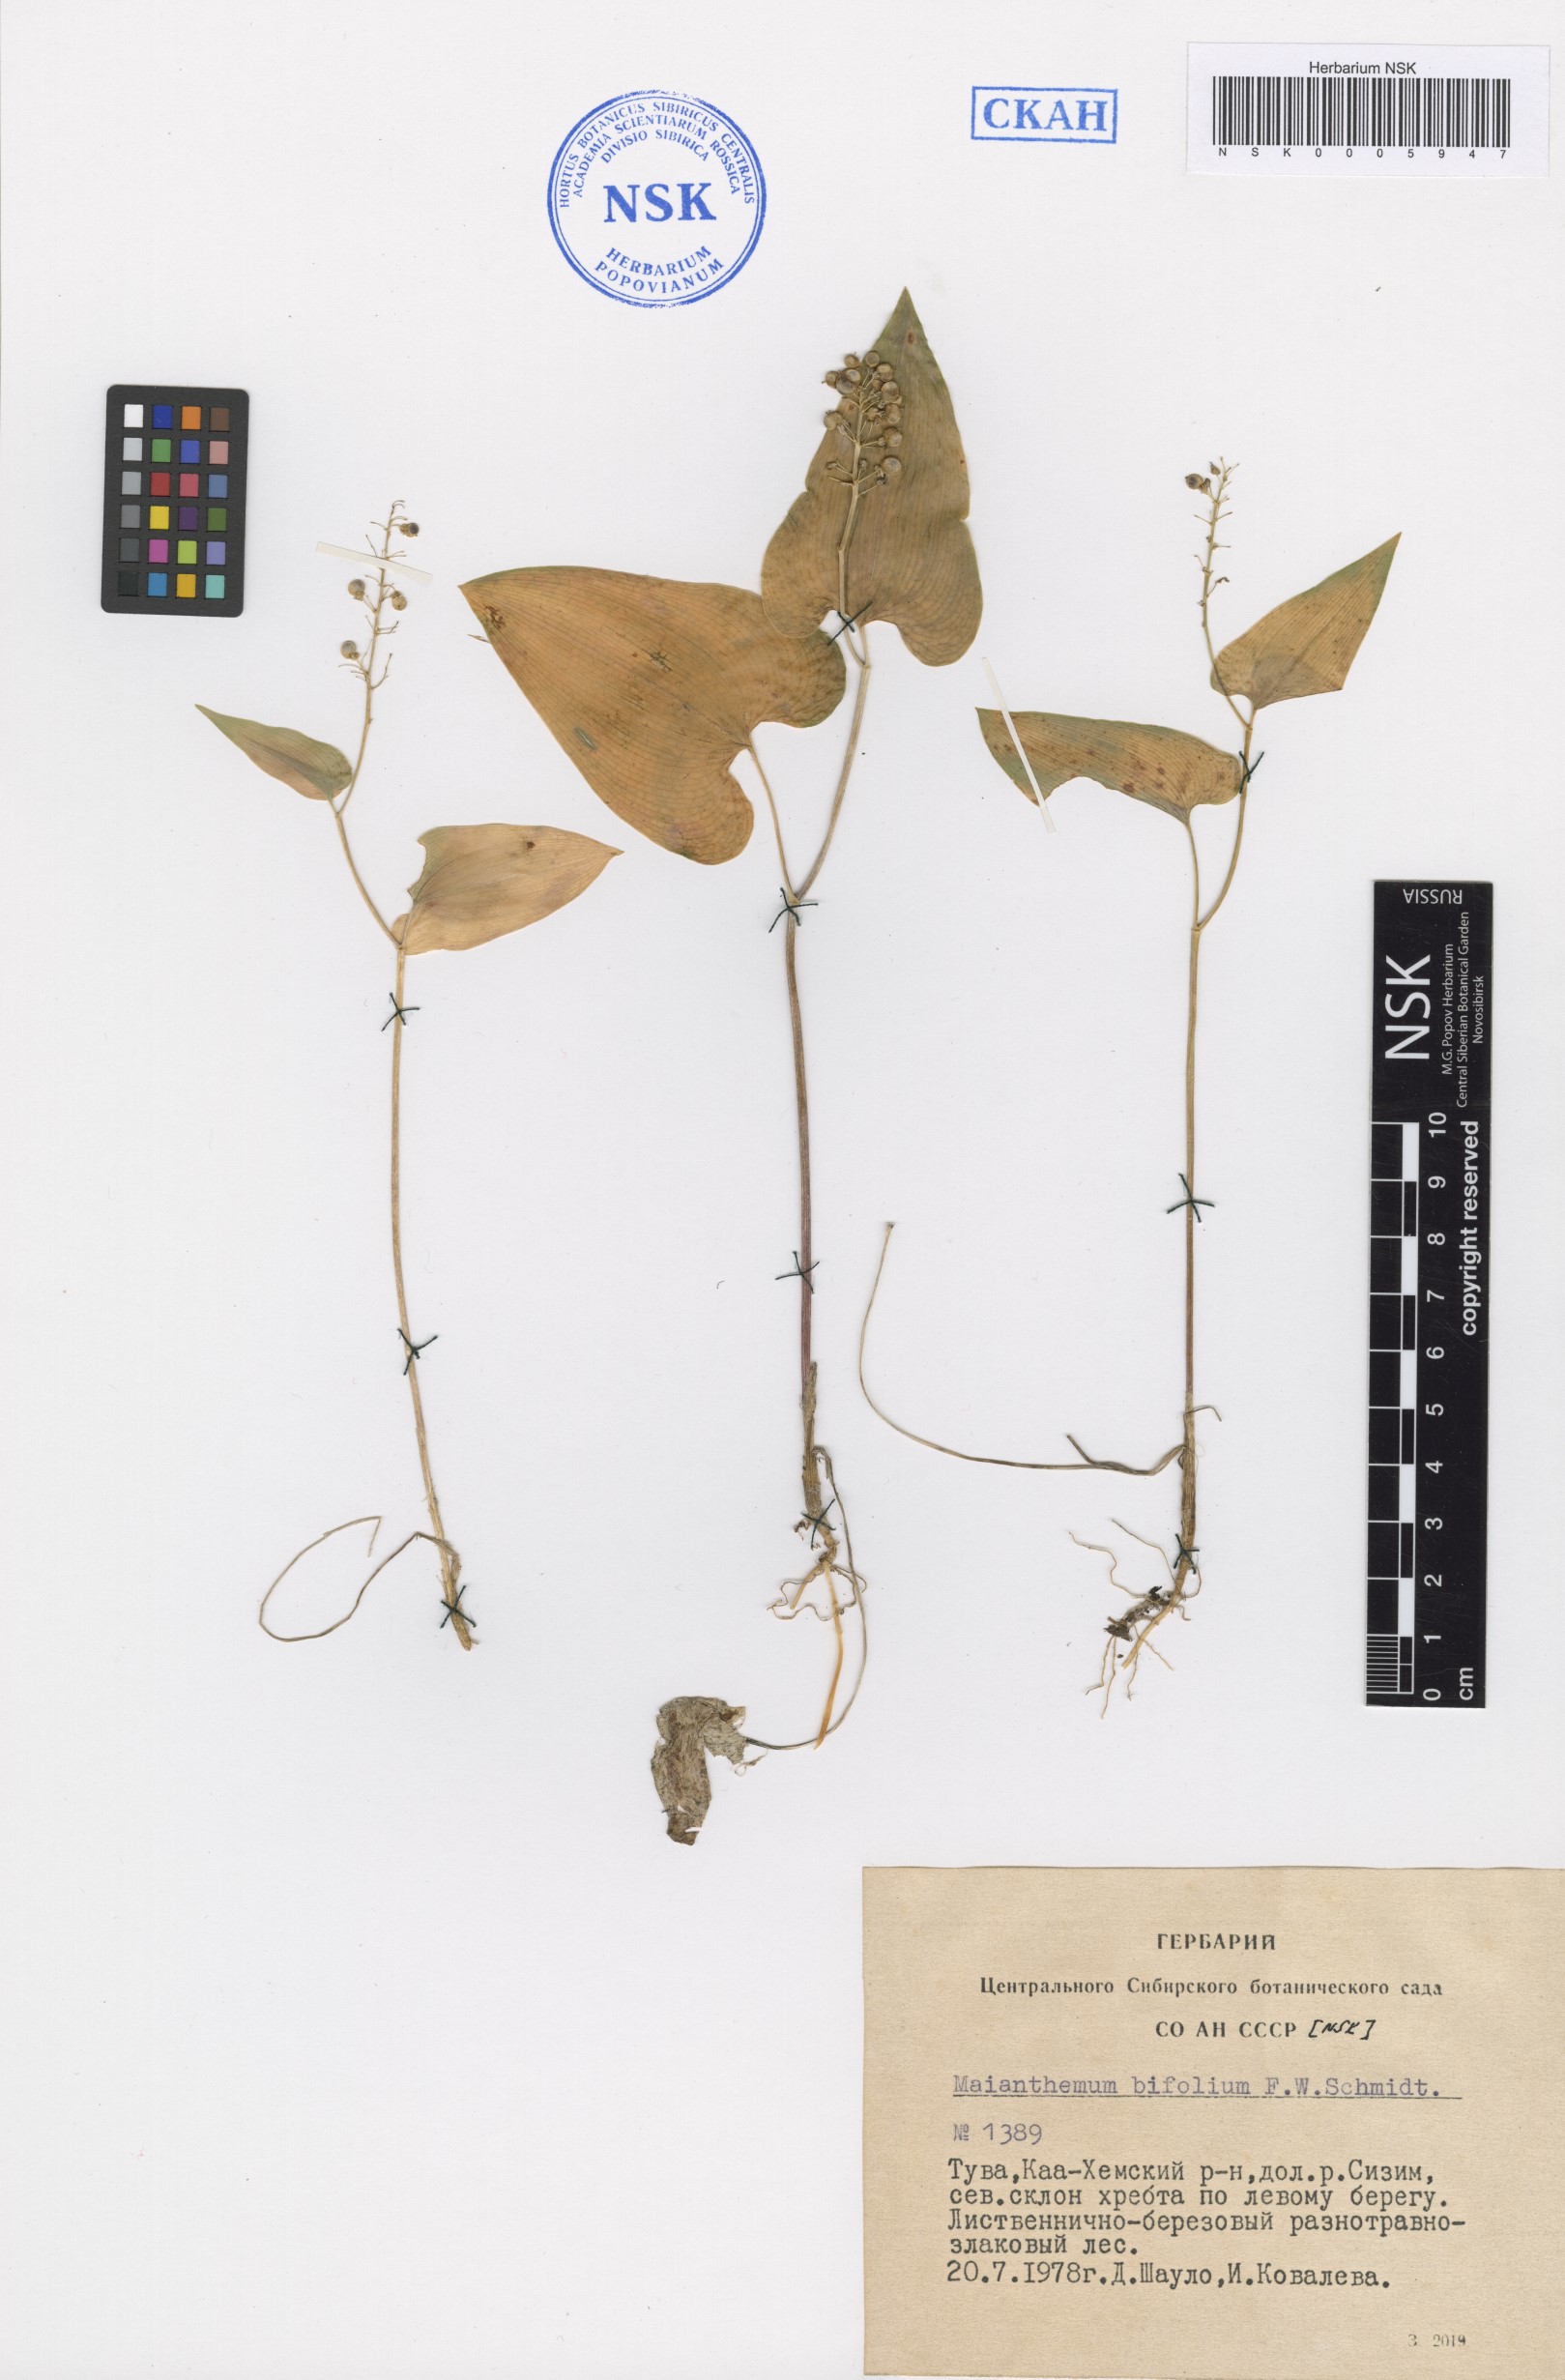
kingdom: Plantae
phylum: Tracheophyta
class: Liliopsida
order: Asparagales
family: Asparagaceae
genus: Maianthemum
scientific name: Maianthemum bifolium
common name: May lily
